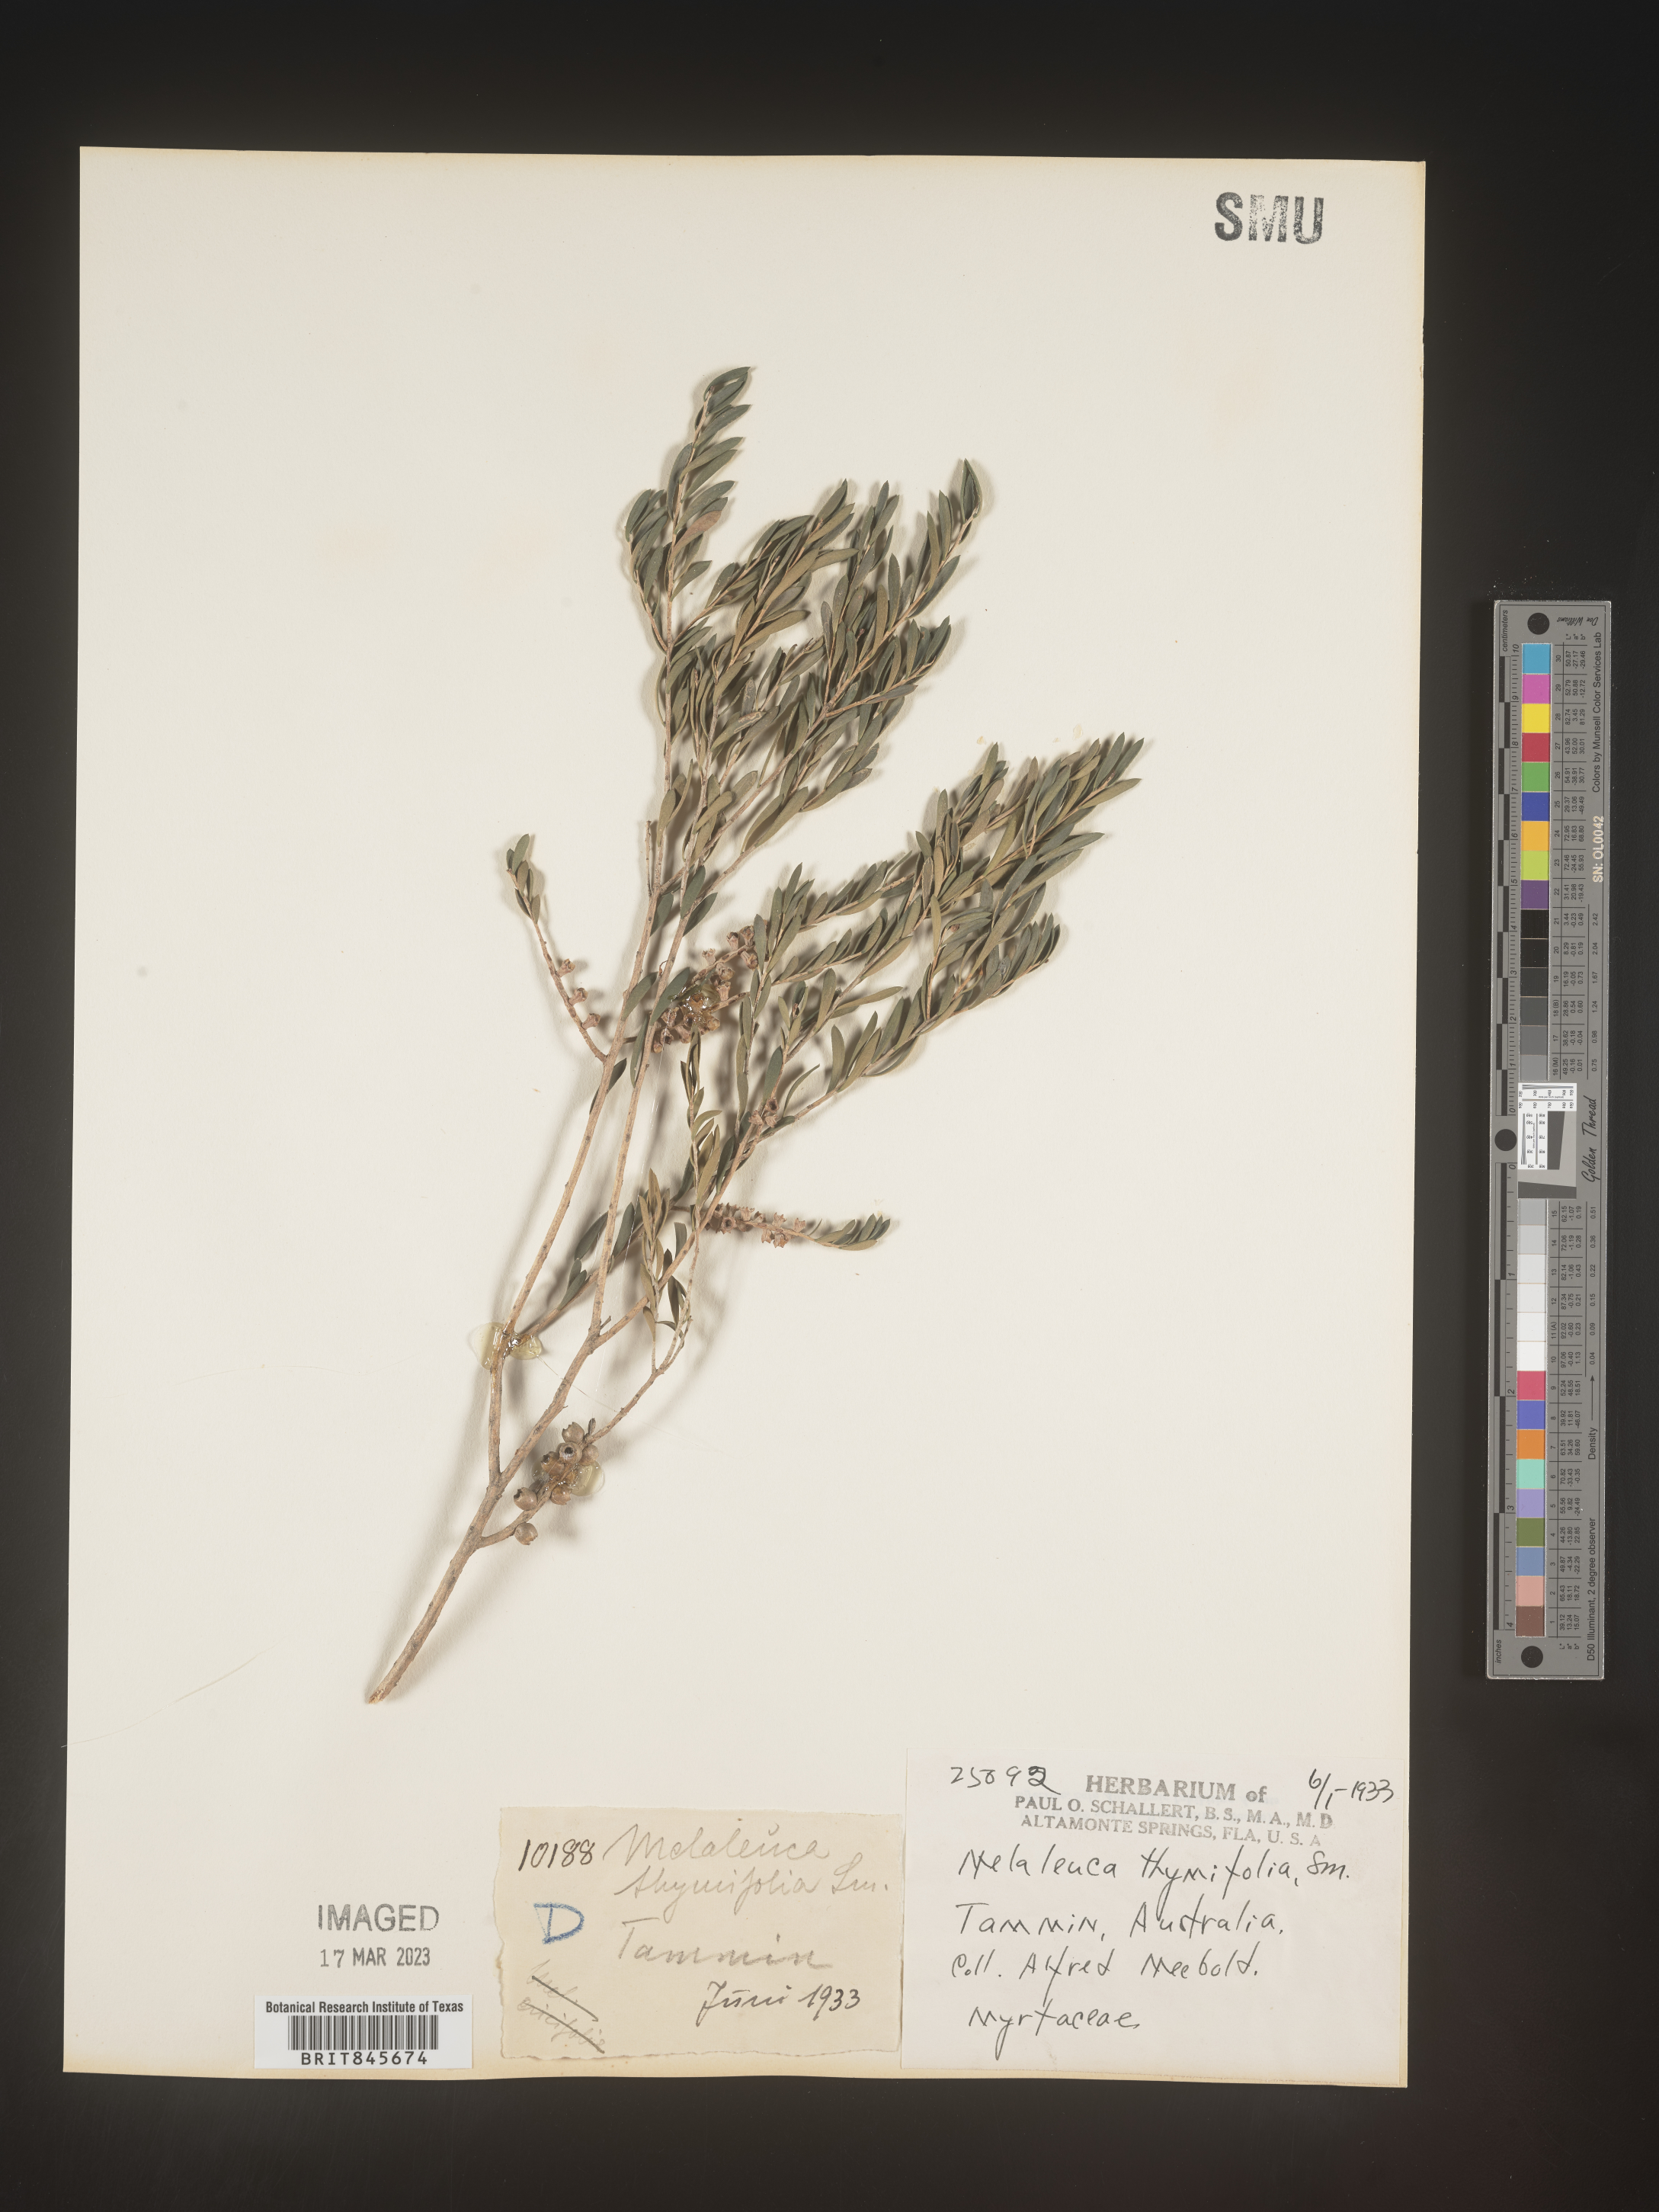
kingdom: Plantae
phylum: Tracheophyta
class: Magnoliopsida
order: Myrtales
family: Myrtaceae
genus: Melaleuca
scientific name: Melaleuca
